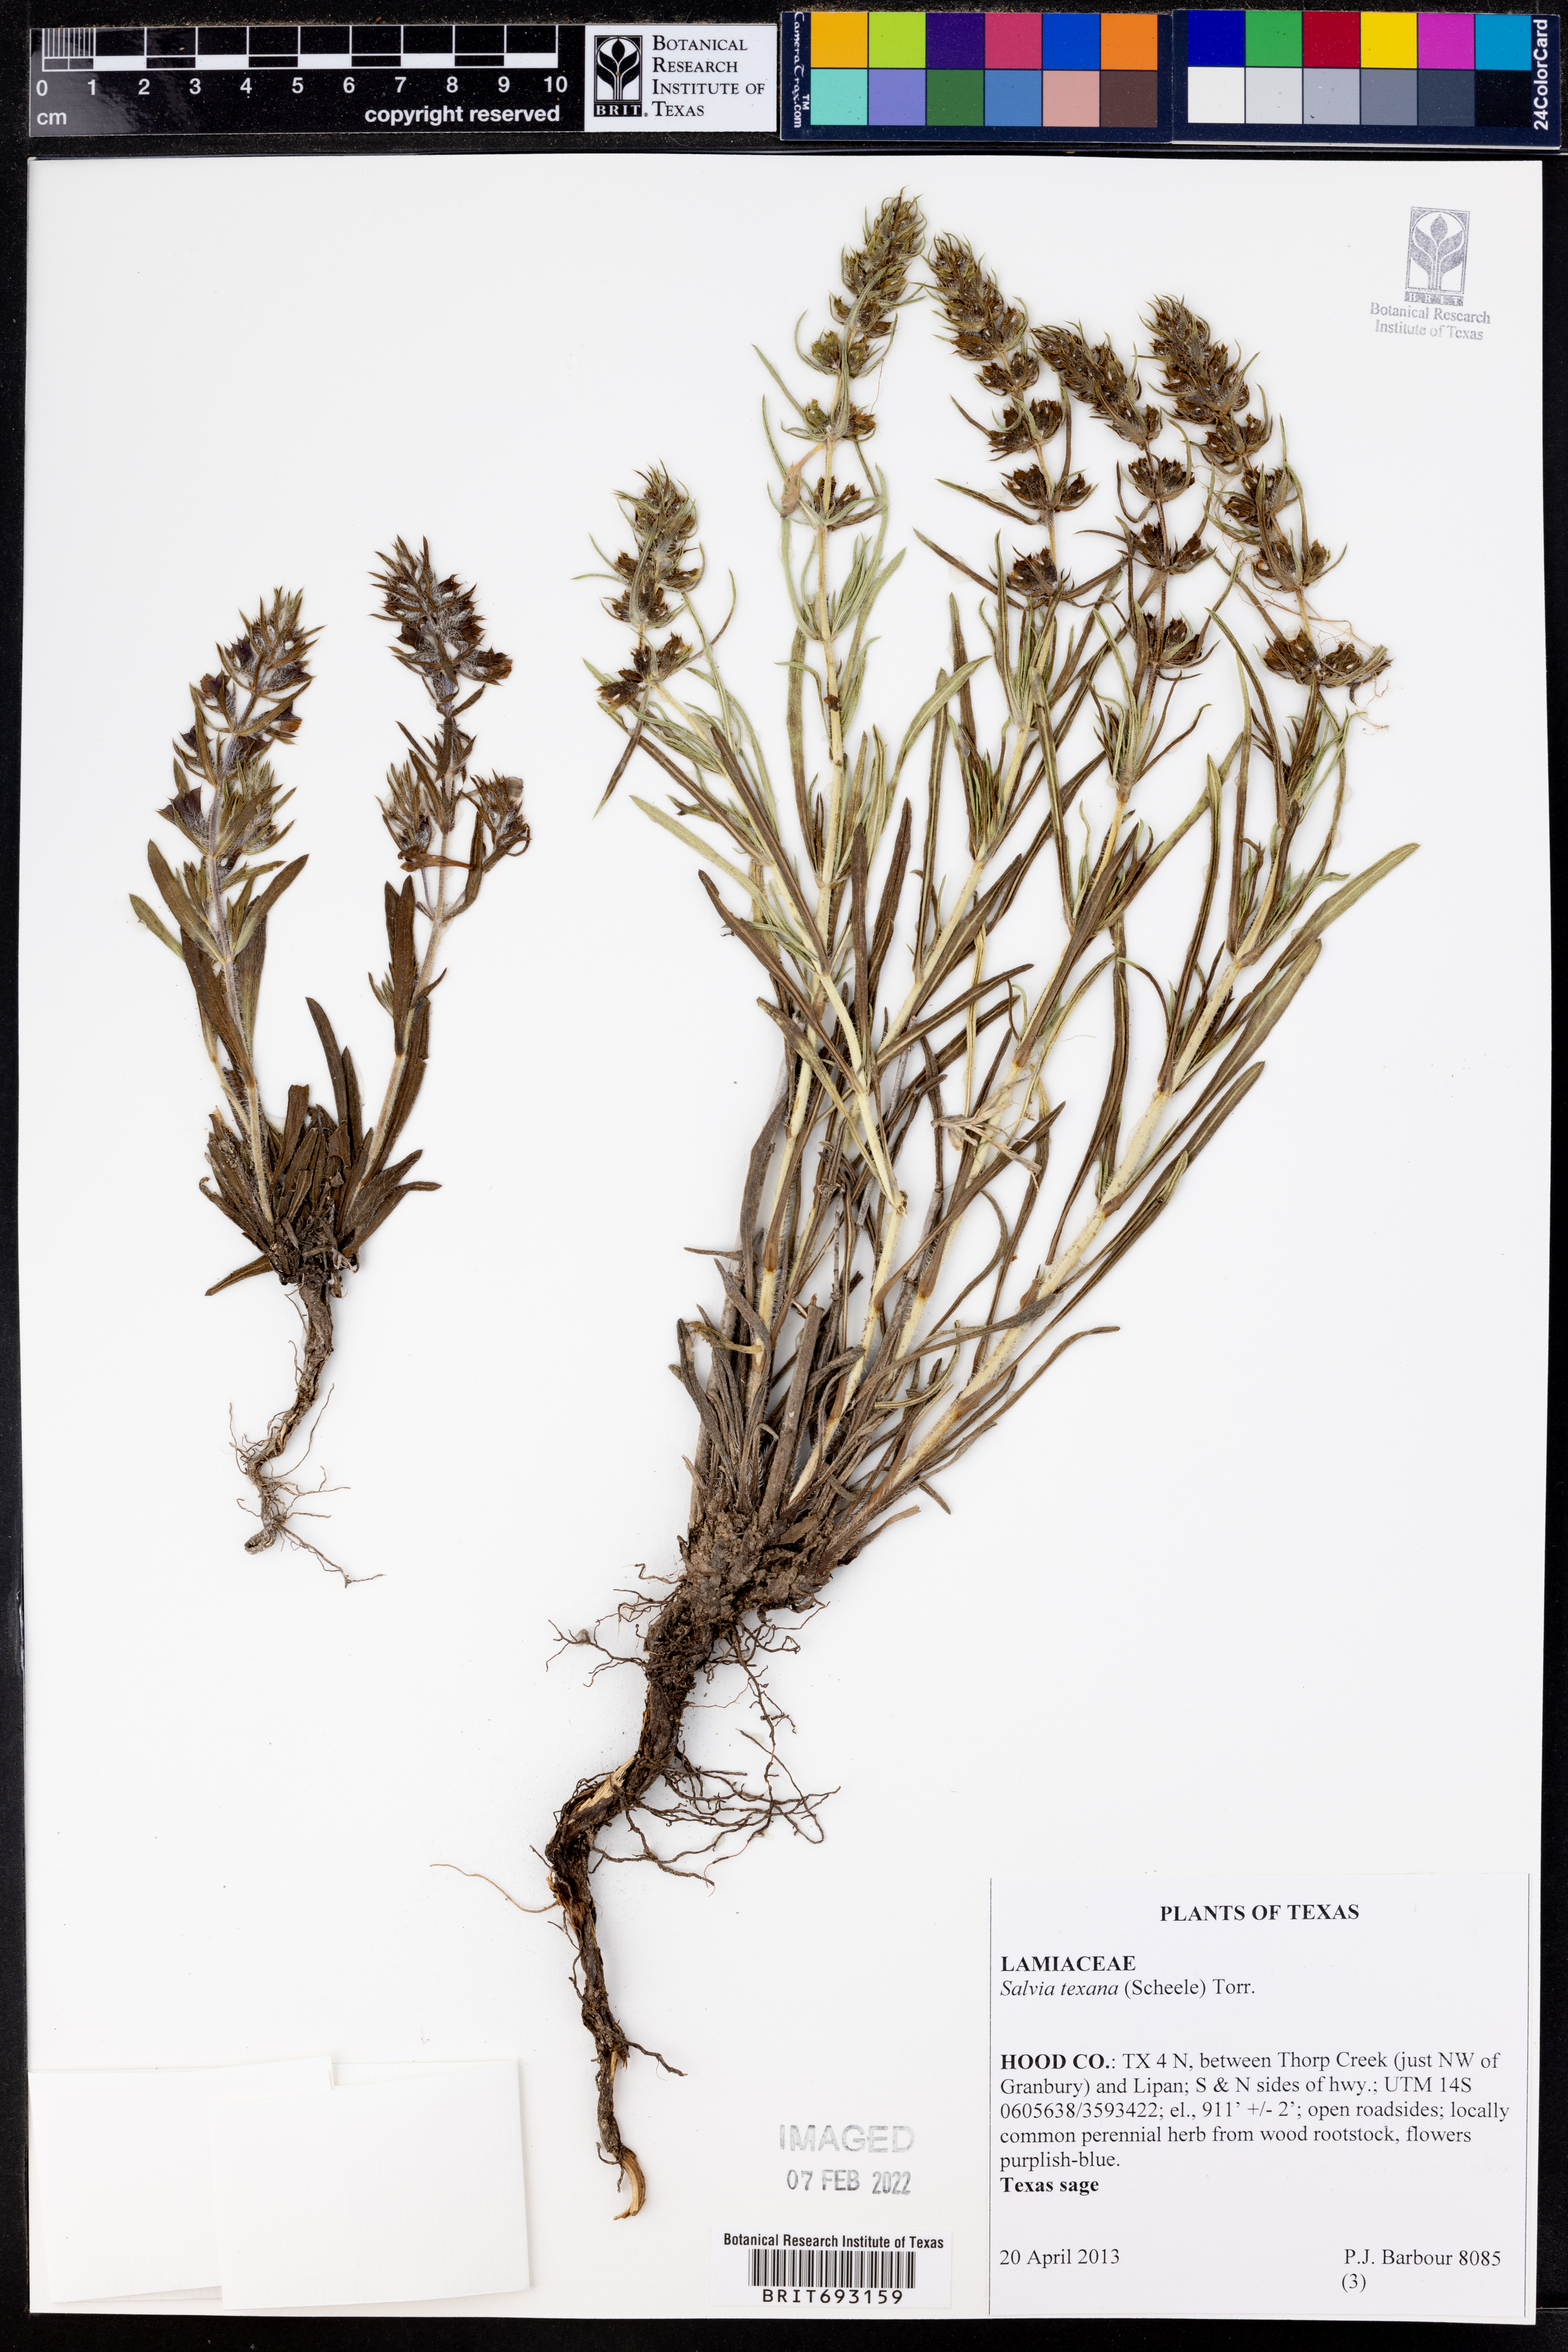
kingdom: Plantae
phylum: Tracheophyta
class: Magnoliopsida
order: Lamiales
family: Lamiaceae
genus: Salvia
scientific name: Salvia texana
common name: Texas sage
